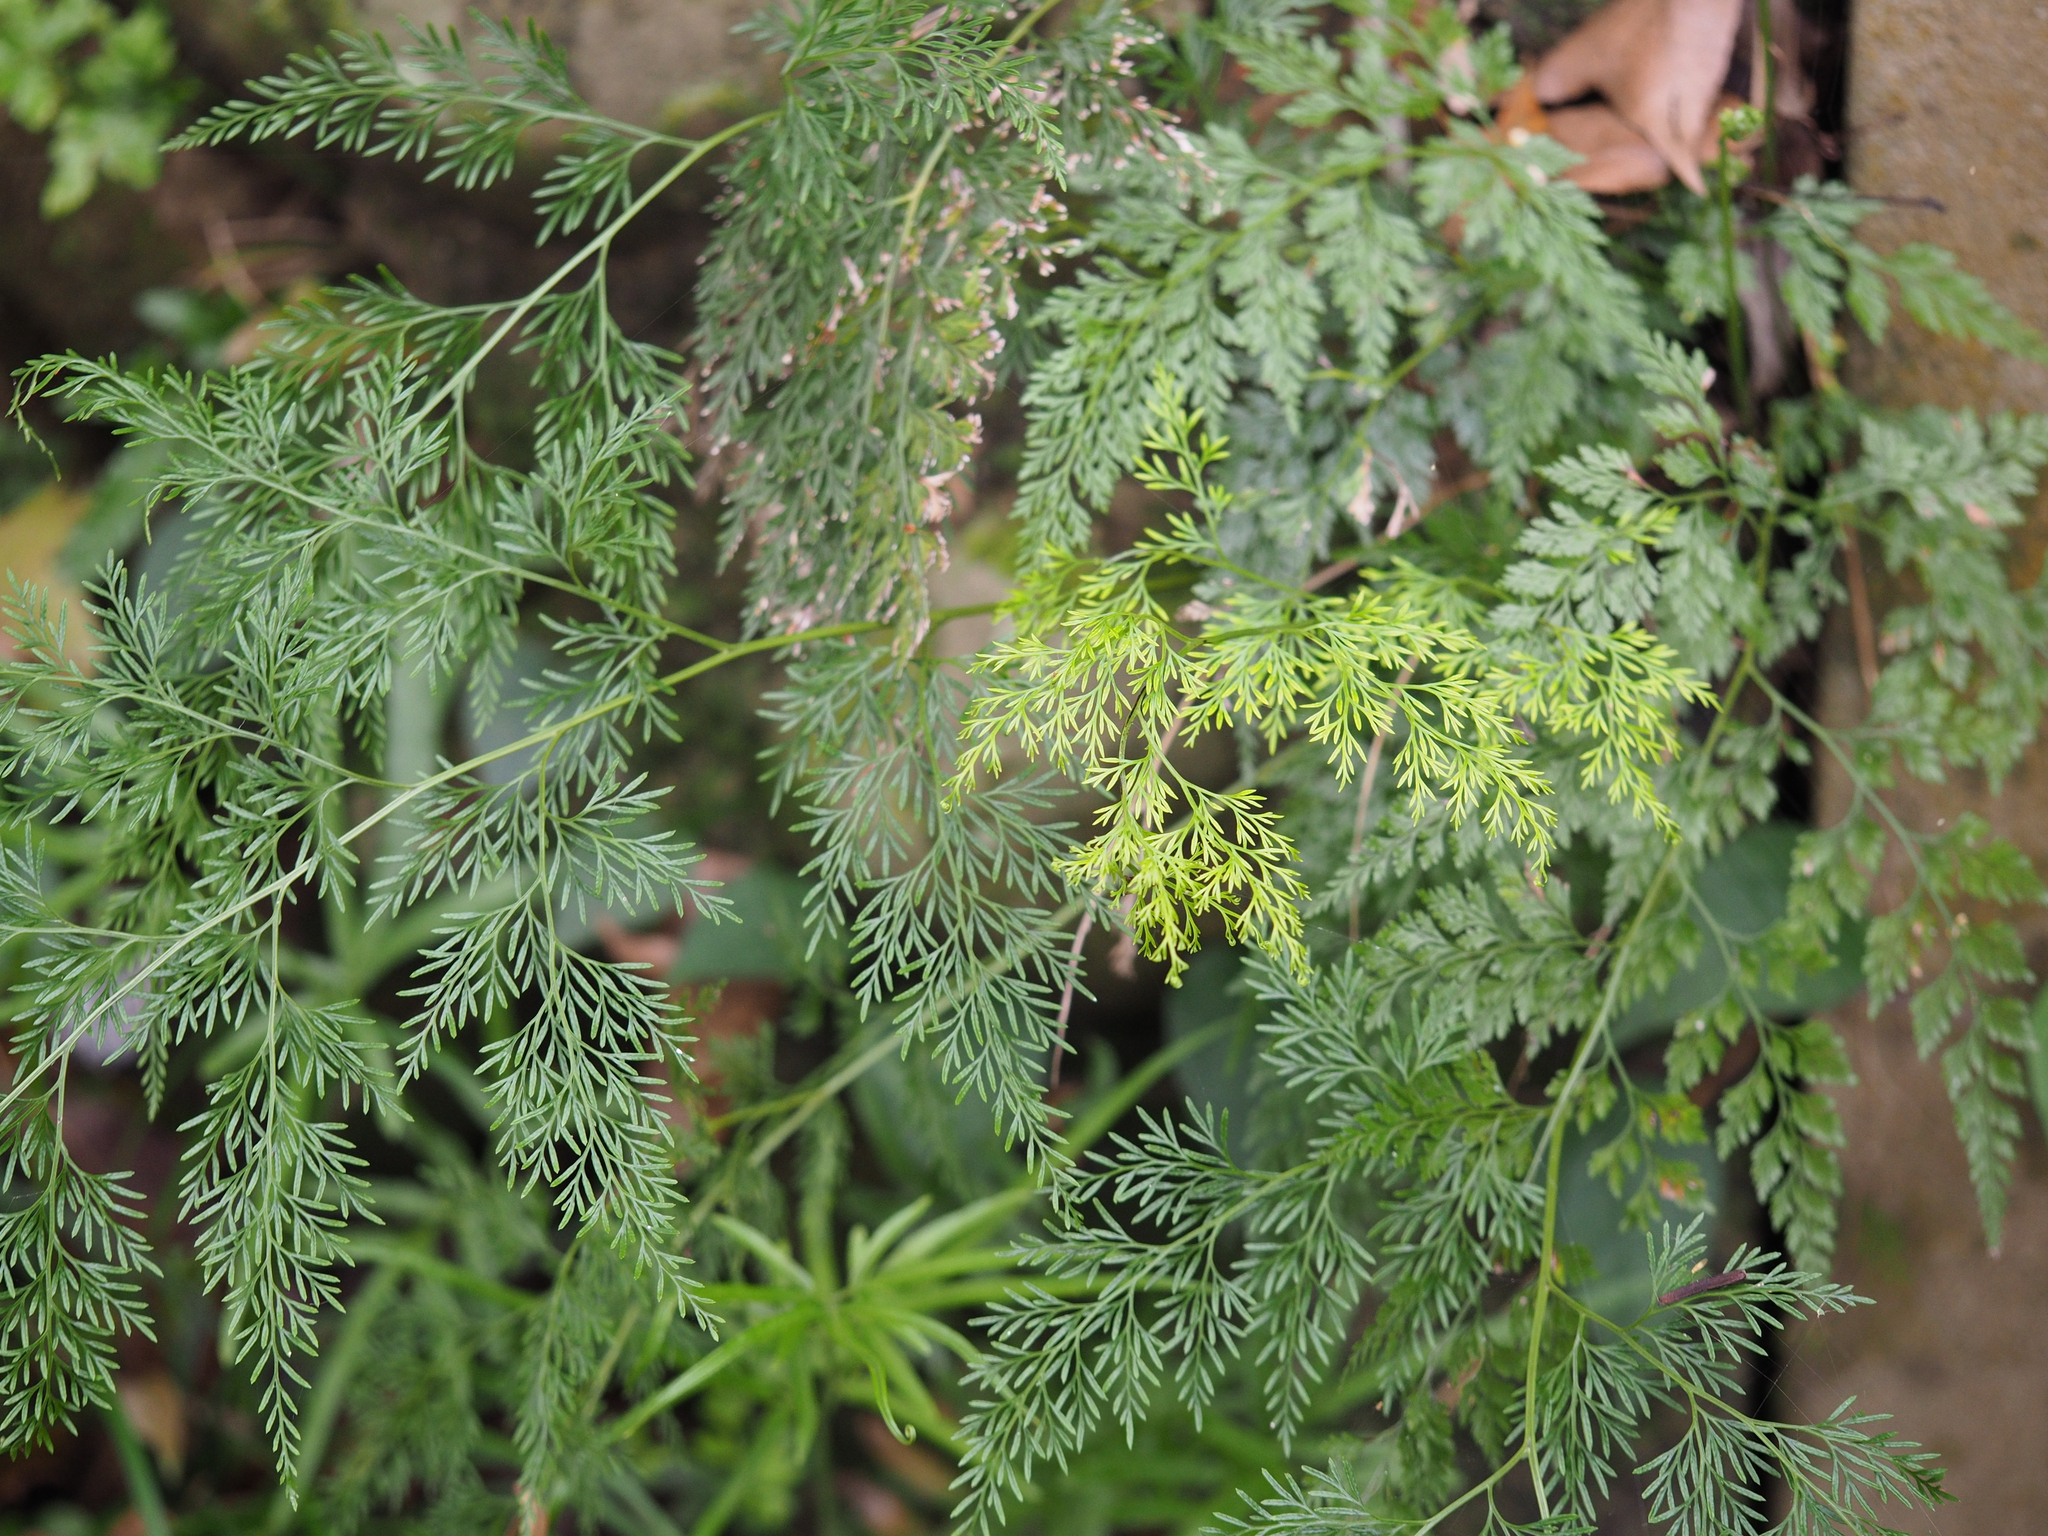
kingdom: Plantae
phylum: Tracheophyta
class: Polypodiopsida
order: Polypodiales
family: Pteridaceae
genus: Onychium
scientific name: Onychium japonicum
